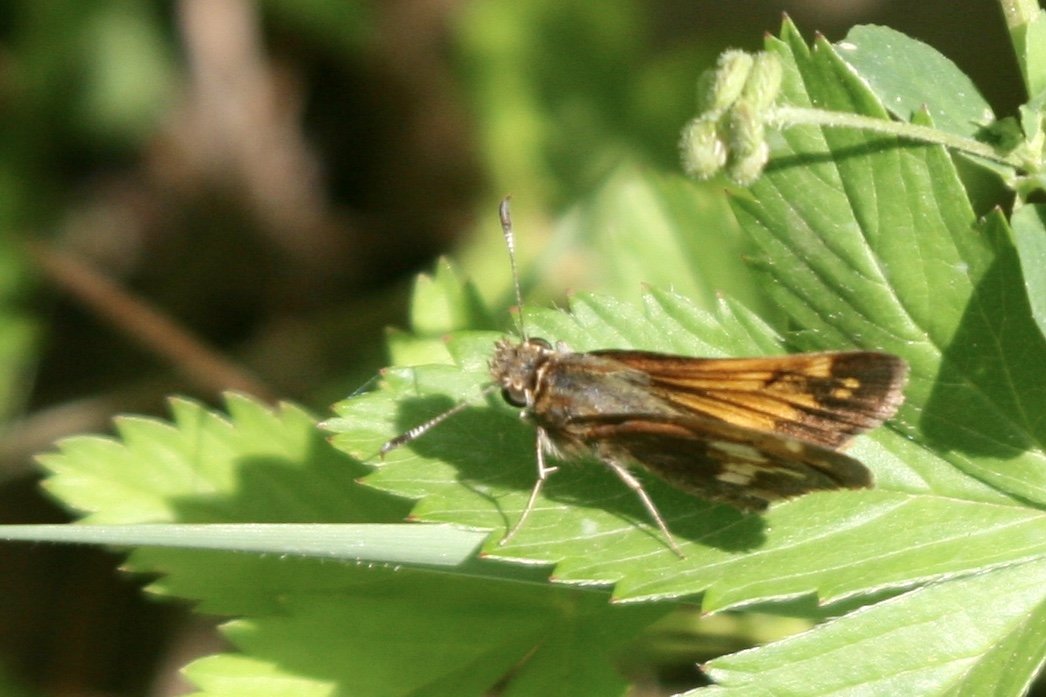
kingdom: Animalia
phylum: Arthropoda
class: Insecta
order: Lepidoptera
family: Hesperiidae
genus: Lon
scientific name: Lon hobomok
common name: Hobomok Skipper
